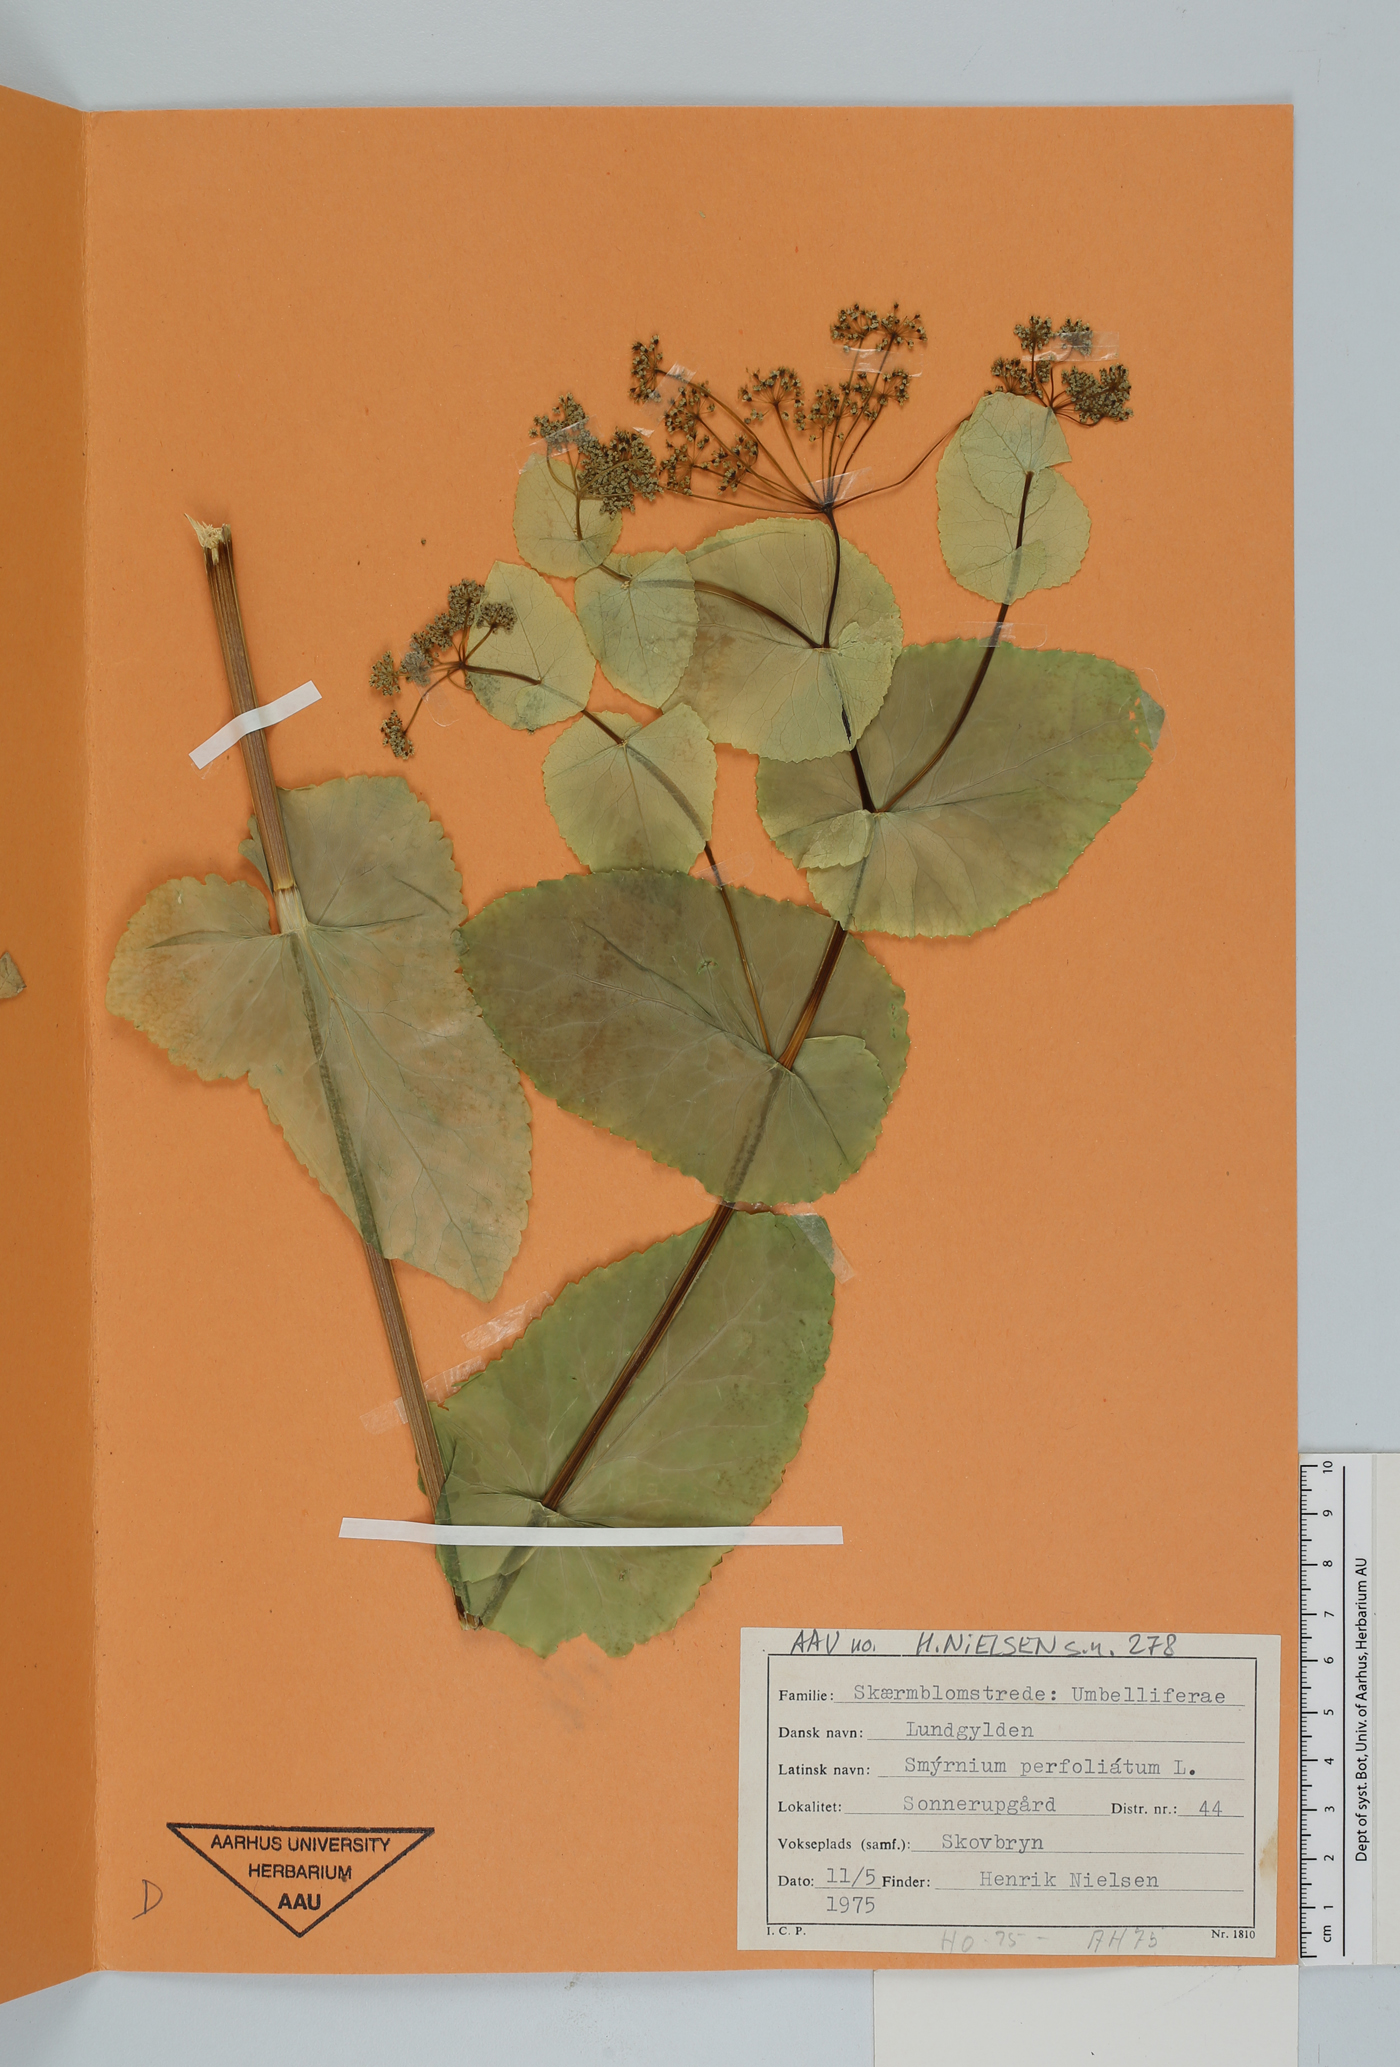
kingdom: Plantae
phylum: Tracheophyta
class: Magnoliopsida
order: Apiales
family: Apiaceae
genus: Smyrnium
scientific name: Smyrnium perfoliatum
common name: Perfoliate alexanders
